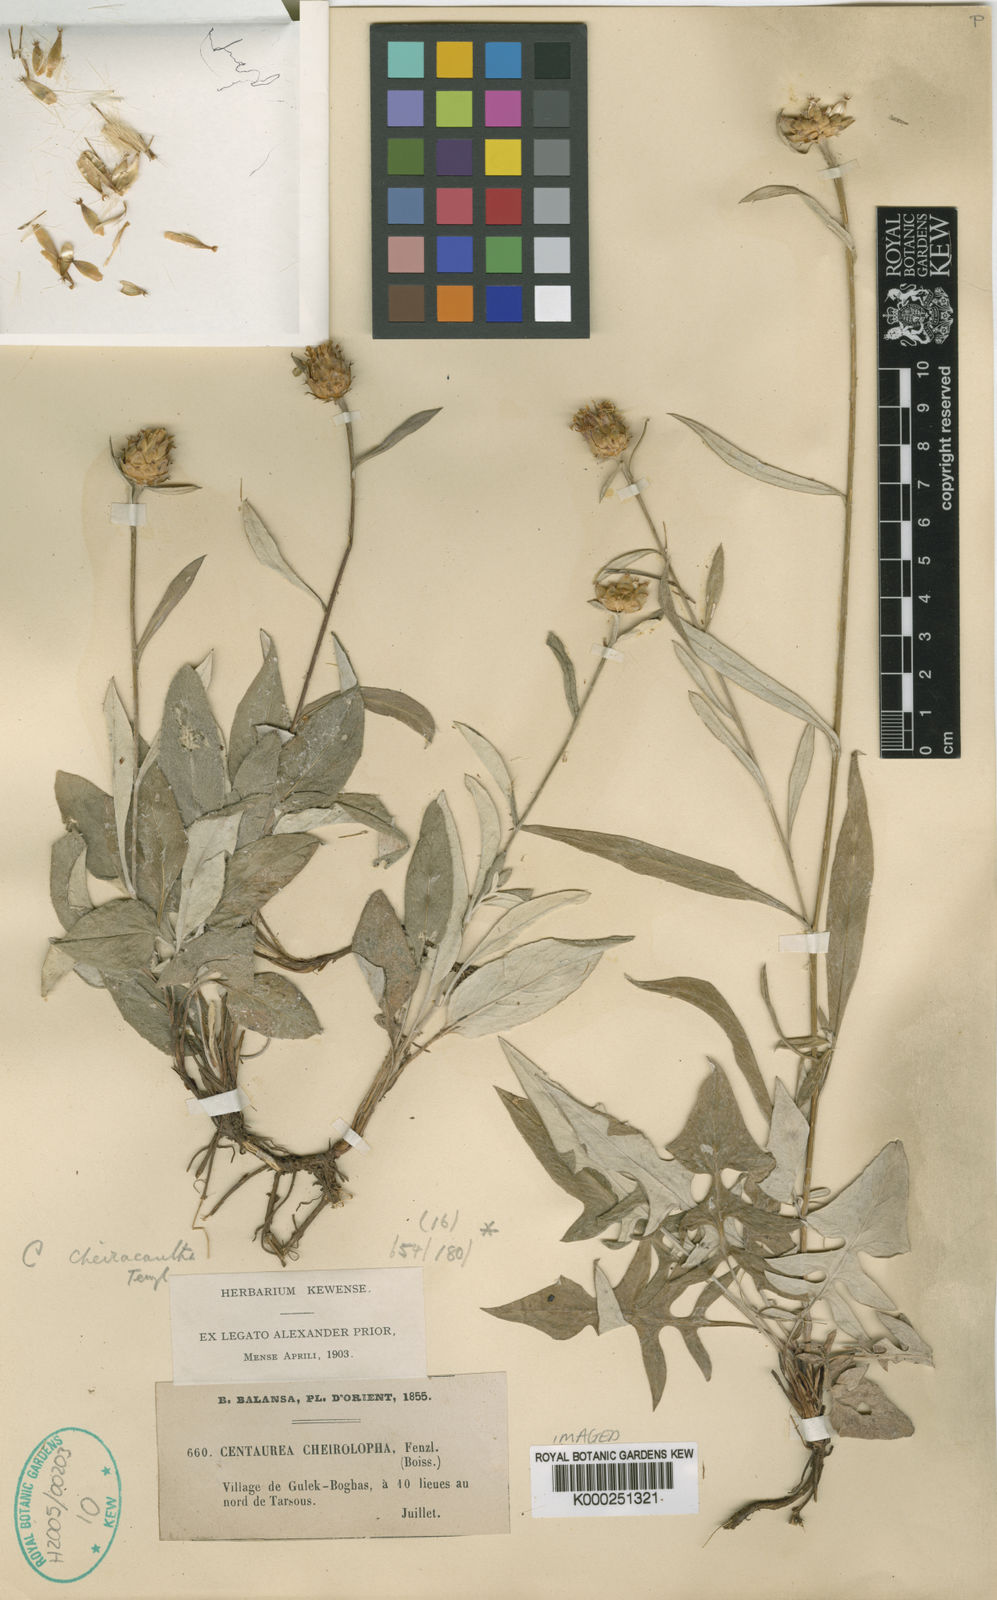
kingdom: Plantae
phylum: Tracheophyta
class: Magnoliopsida
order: Asterales
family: Asteraceae
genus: Centaurea
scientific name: Centaurea cheirolopha
